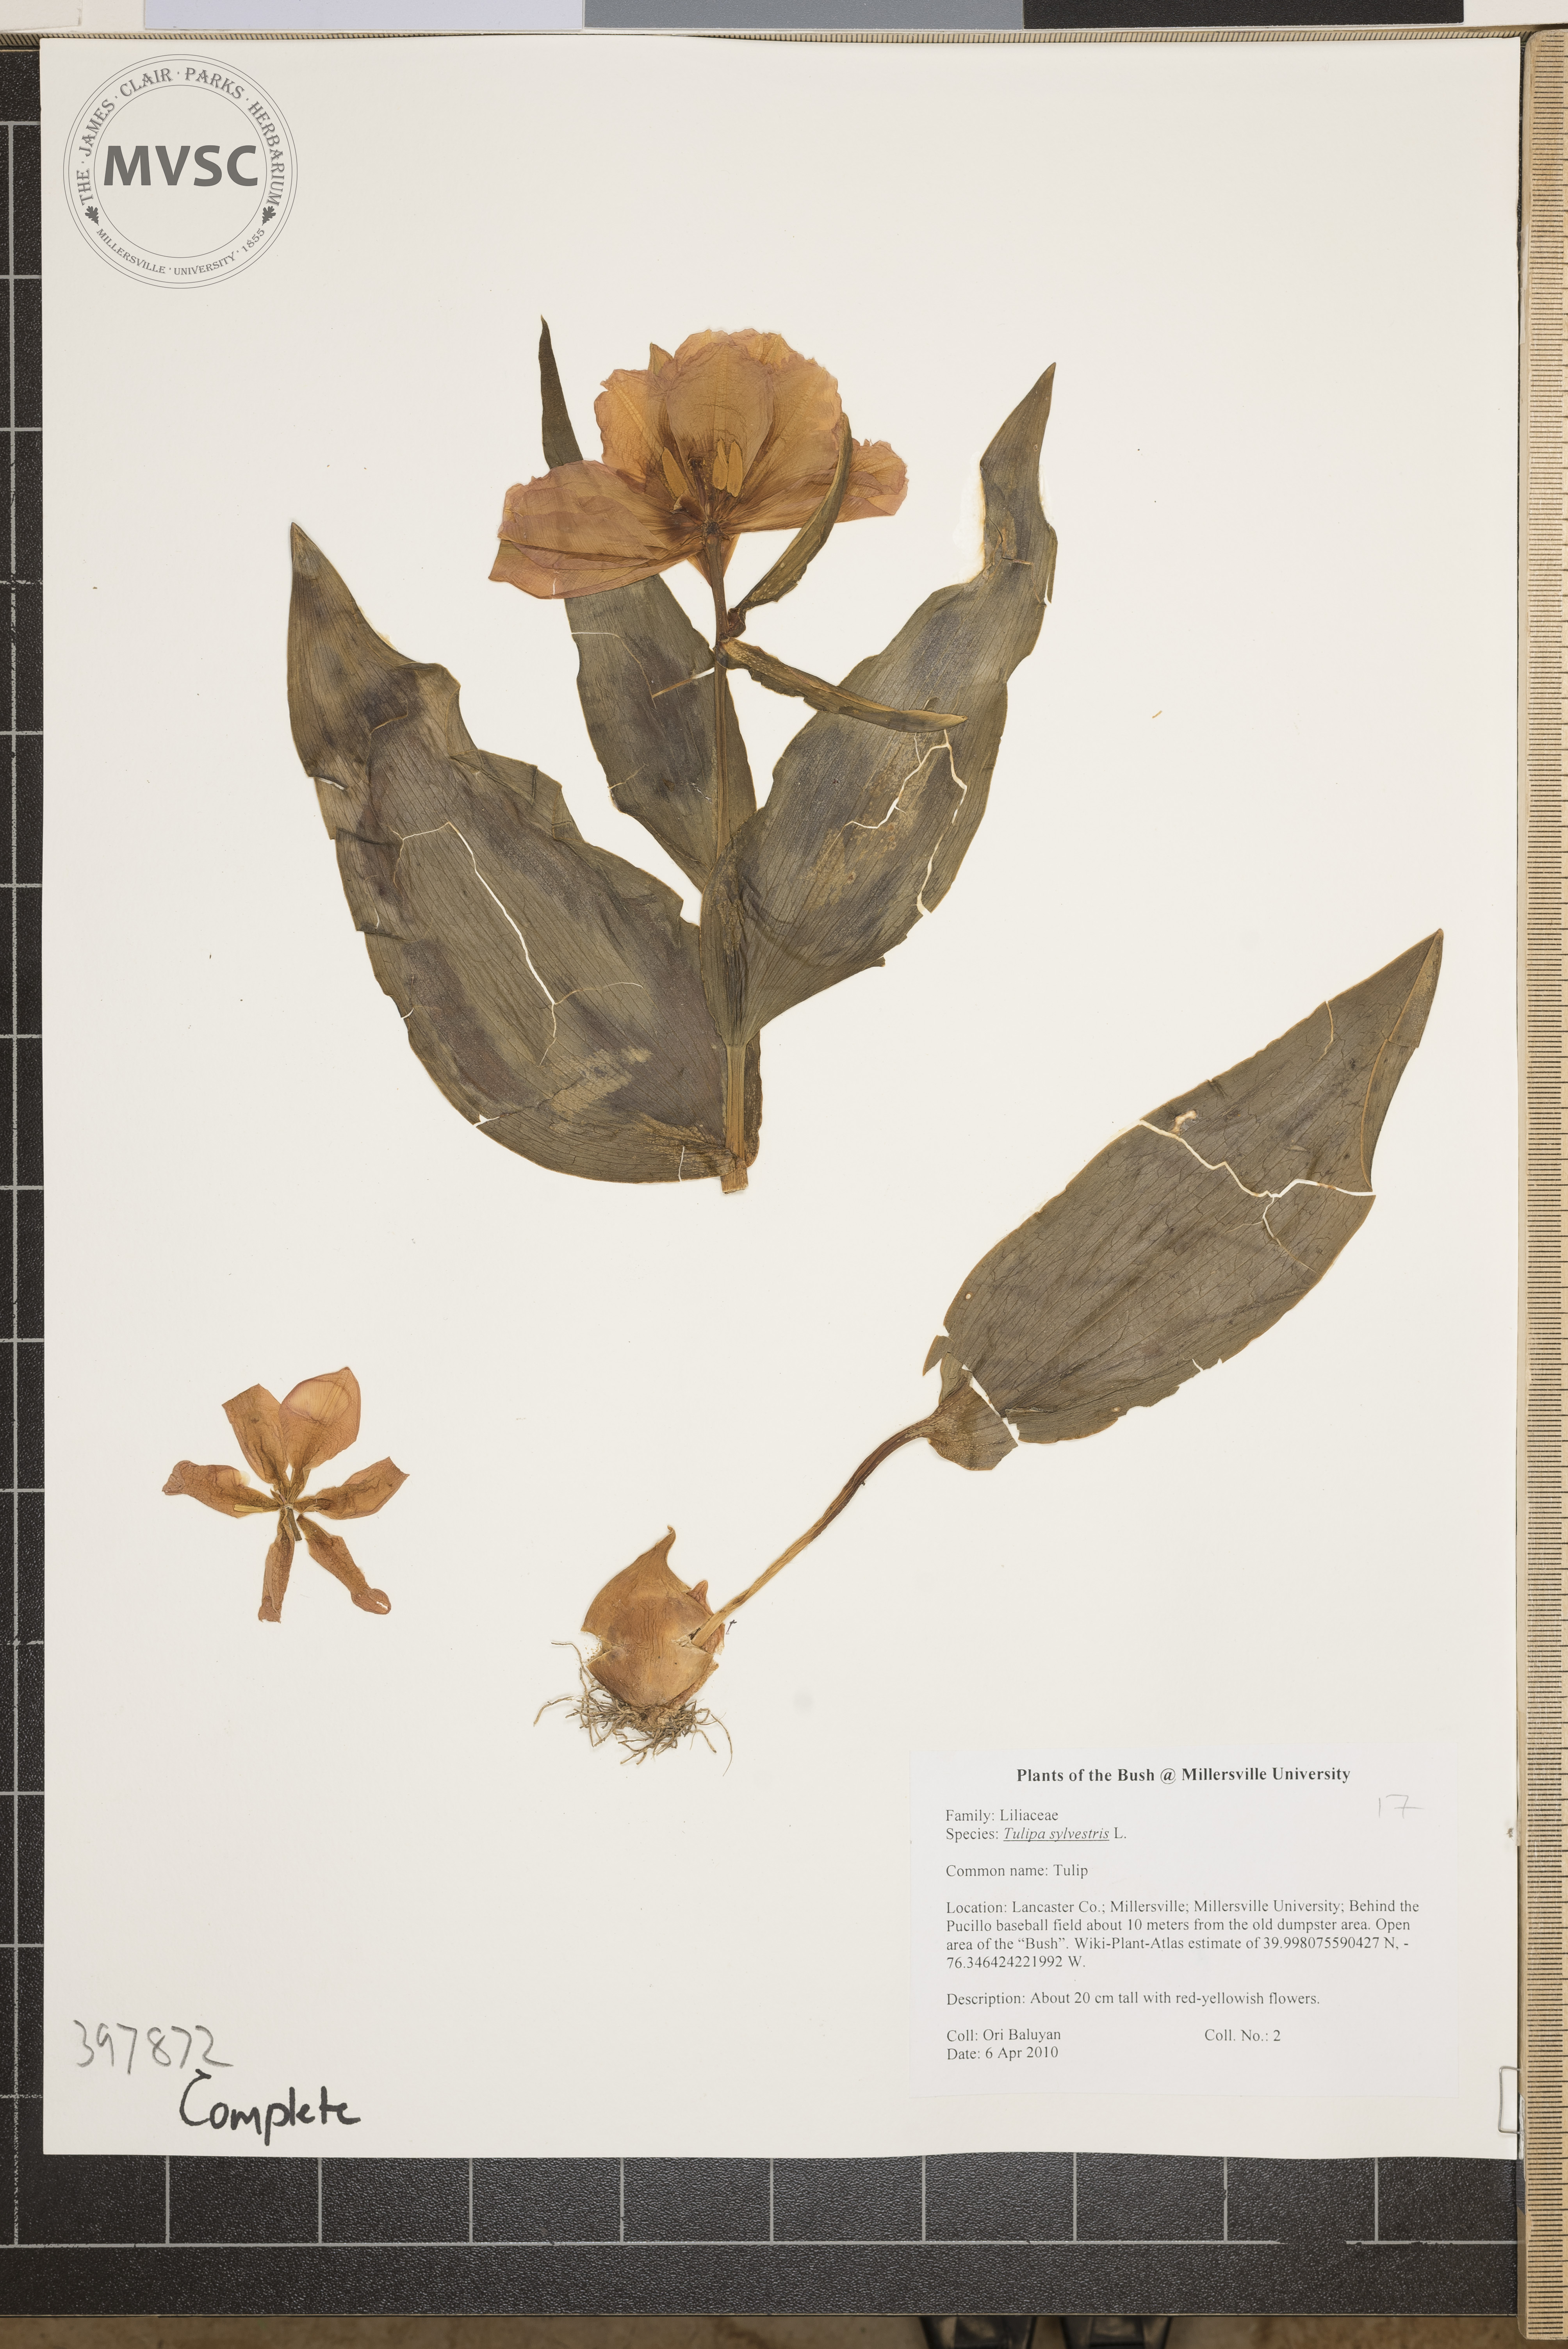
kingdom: Plantae
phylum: Tracheophyta
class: Liliopsida
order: Liliales
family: Liliaceae
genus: Tulipa
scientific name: Tulipa sylvestris
